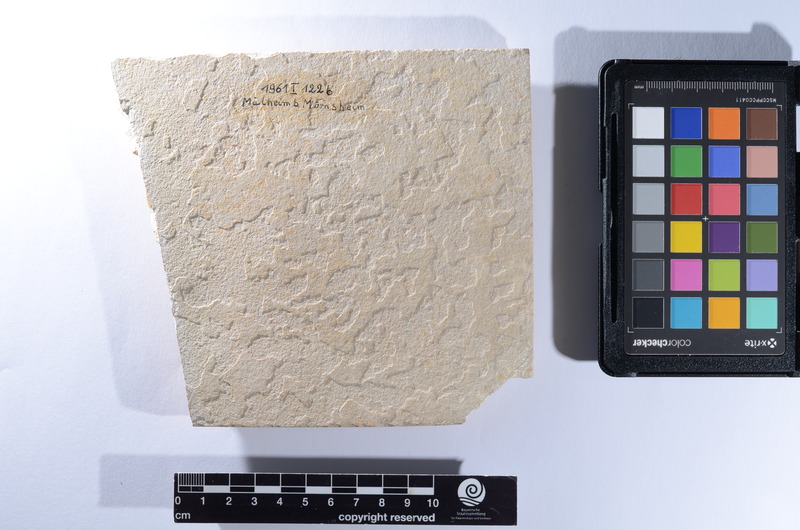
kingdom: Animalia
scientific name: Animalia
